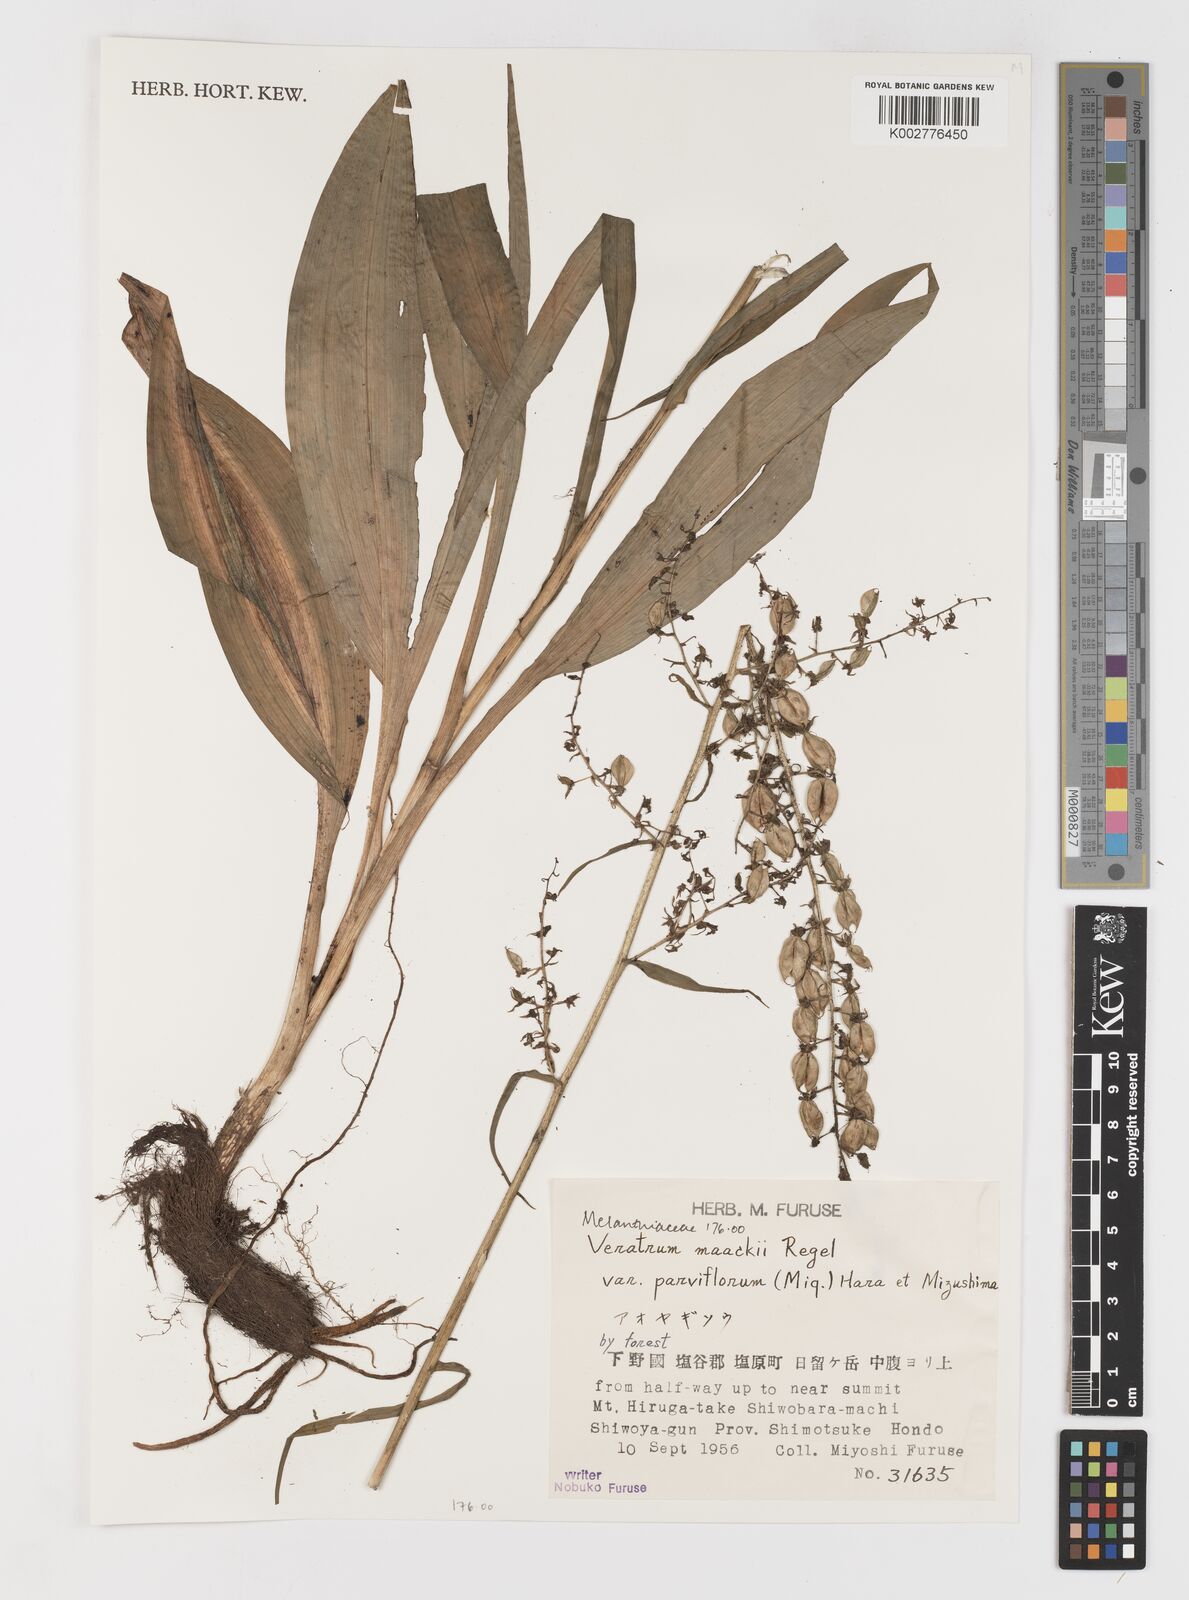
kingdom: Plantae
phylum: Tracheophyta
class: Liliopsida
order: Liliales
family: Melanthiaceae
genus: Veratrum
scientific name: Veratrum maackii
